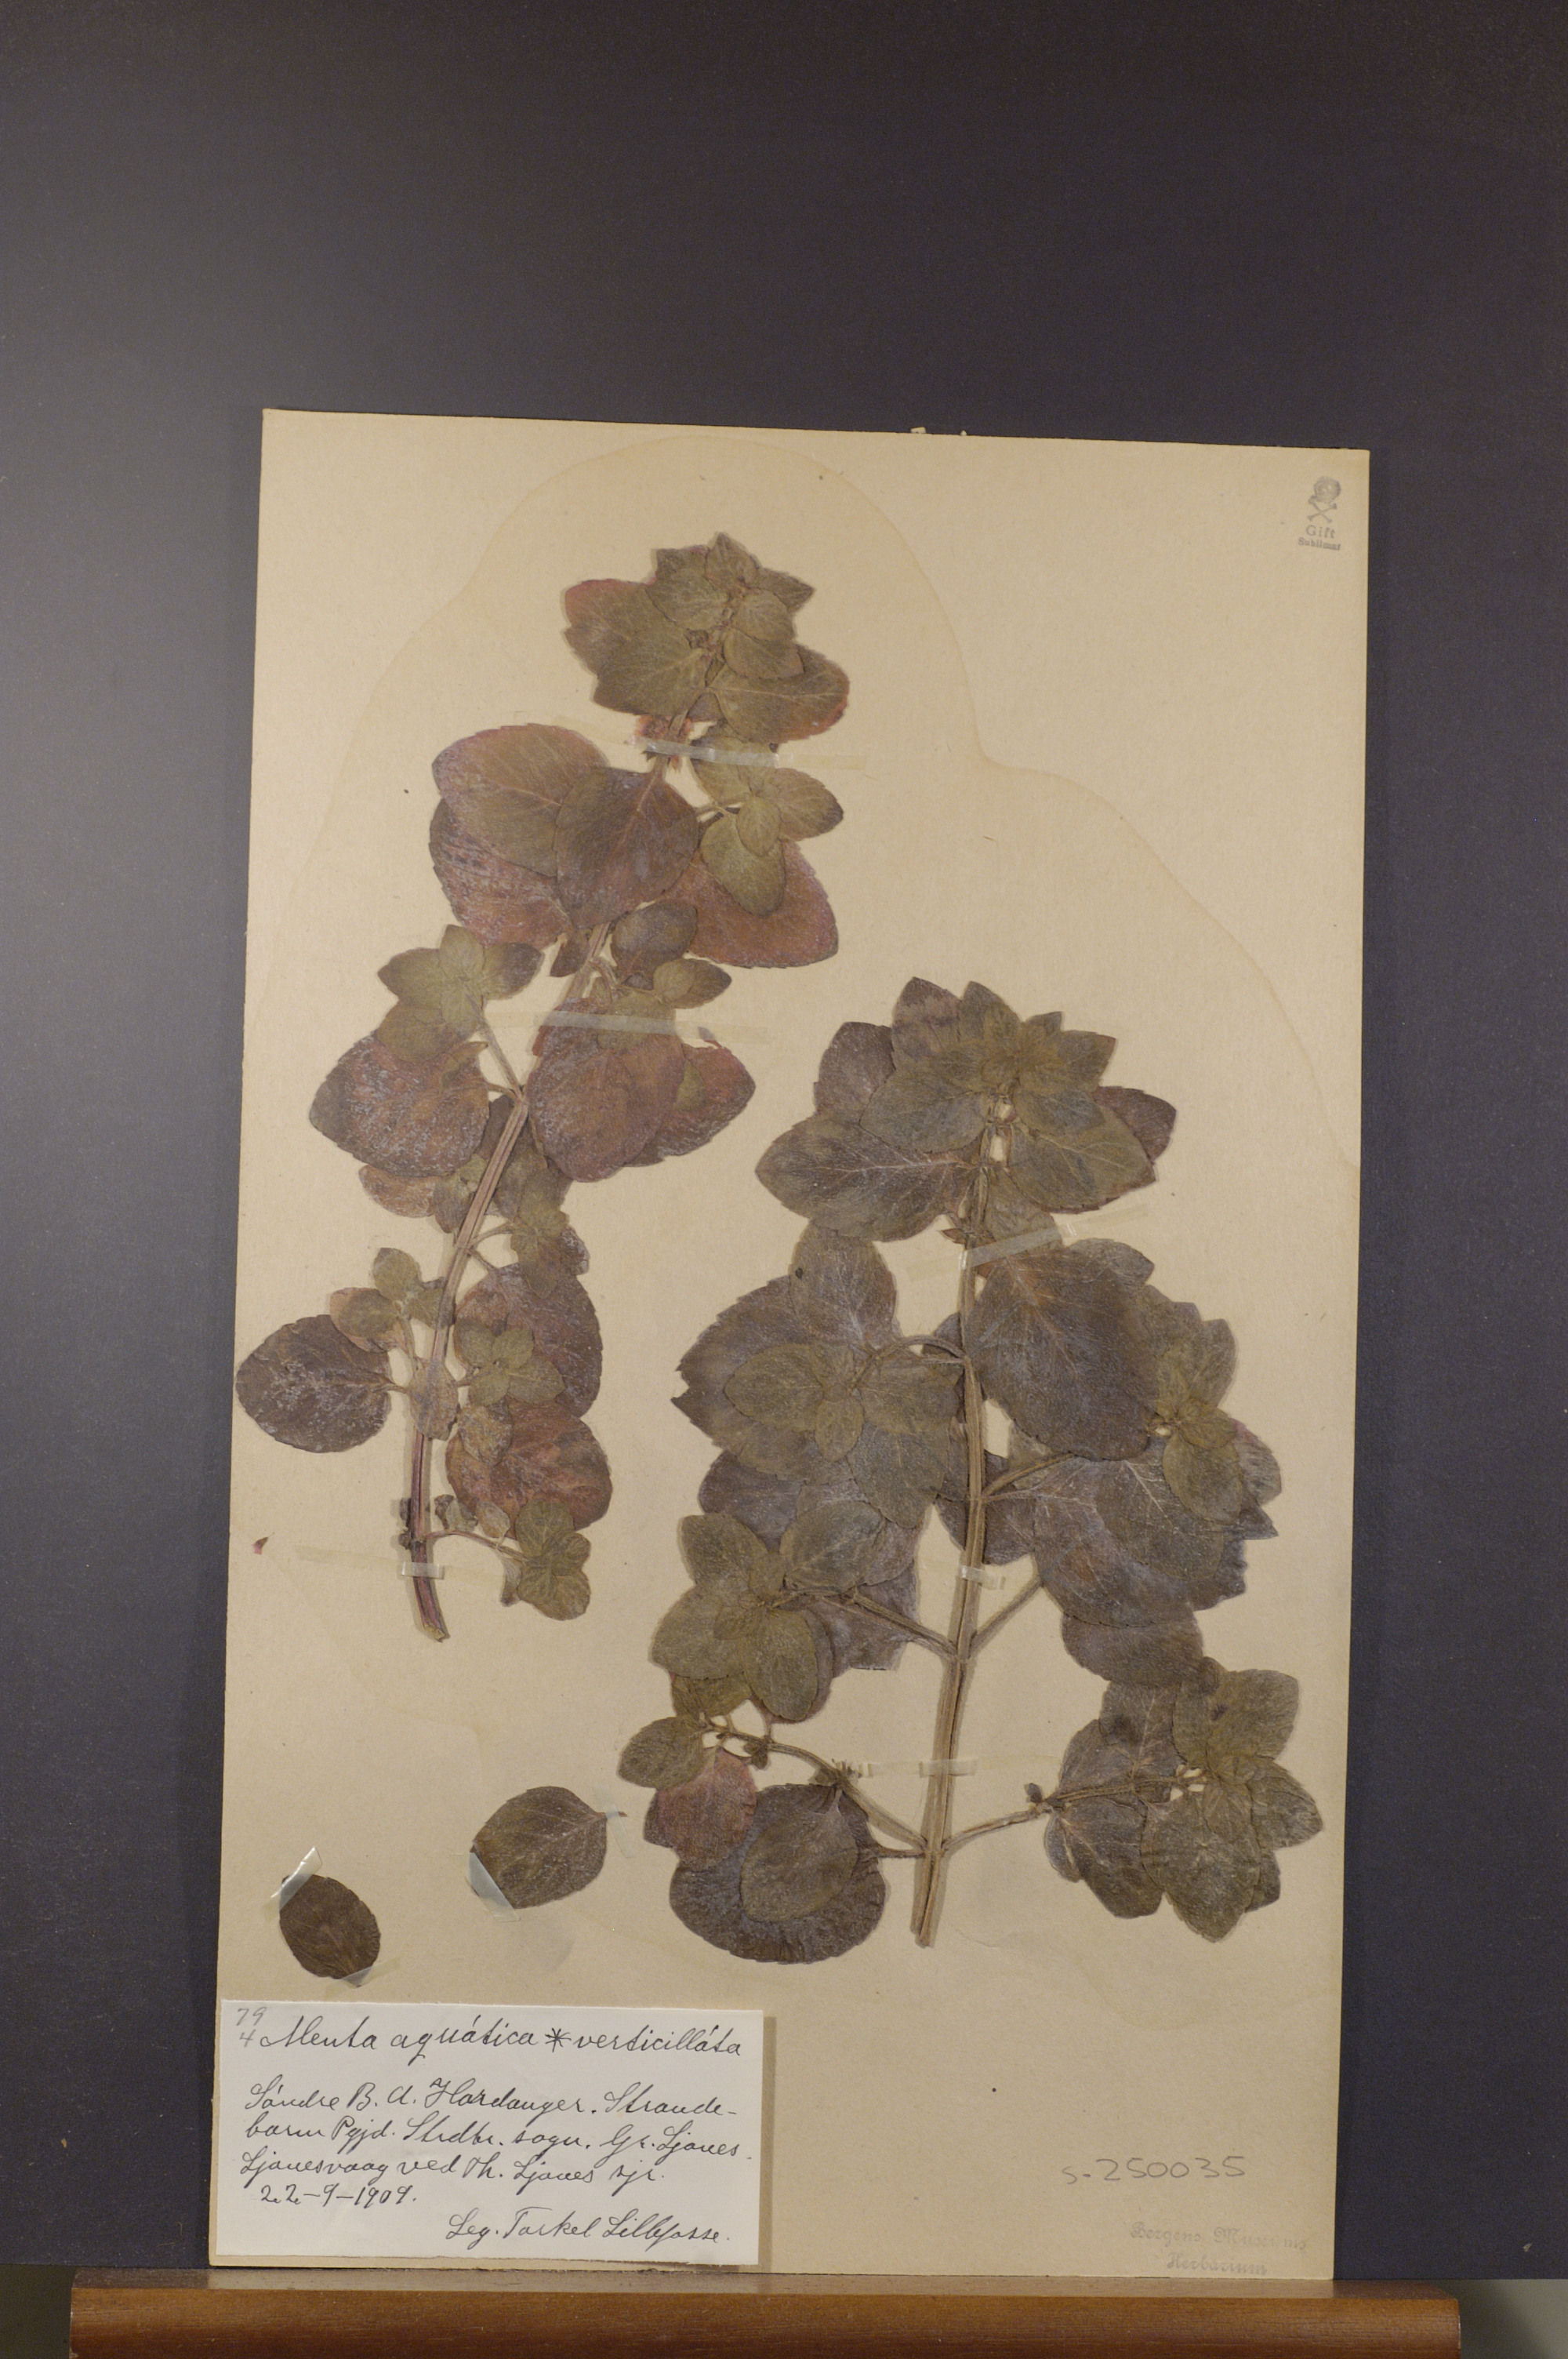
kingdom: Plantae
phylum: Tracheophyta
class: Magnoliopsida
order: Lamiales
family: Lamiaceae
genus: Mentha
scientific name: Mentha aquatica
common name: Water mint
